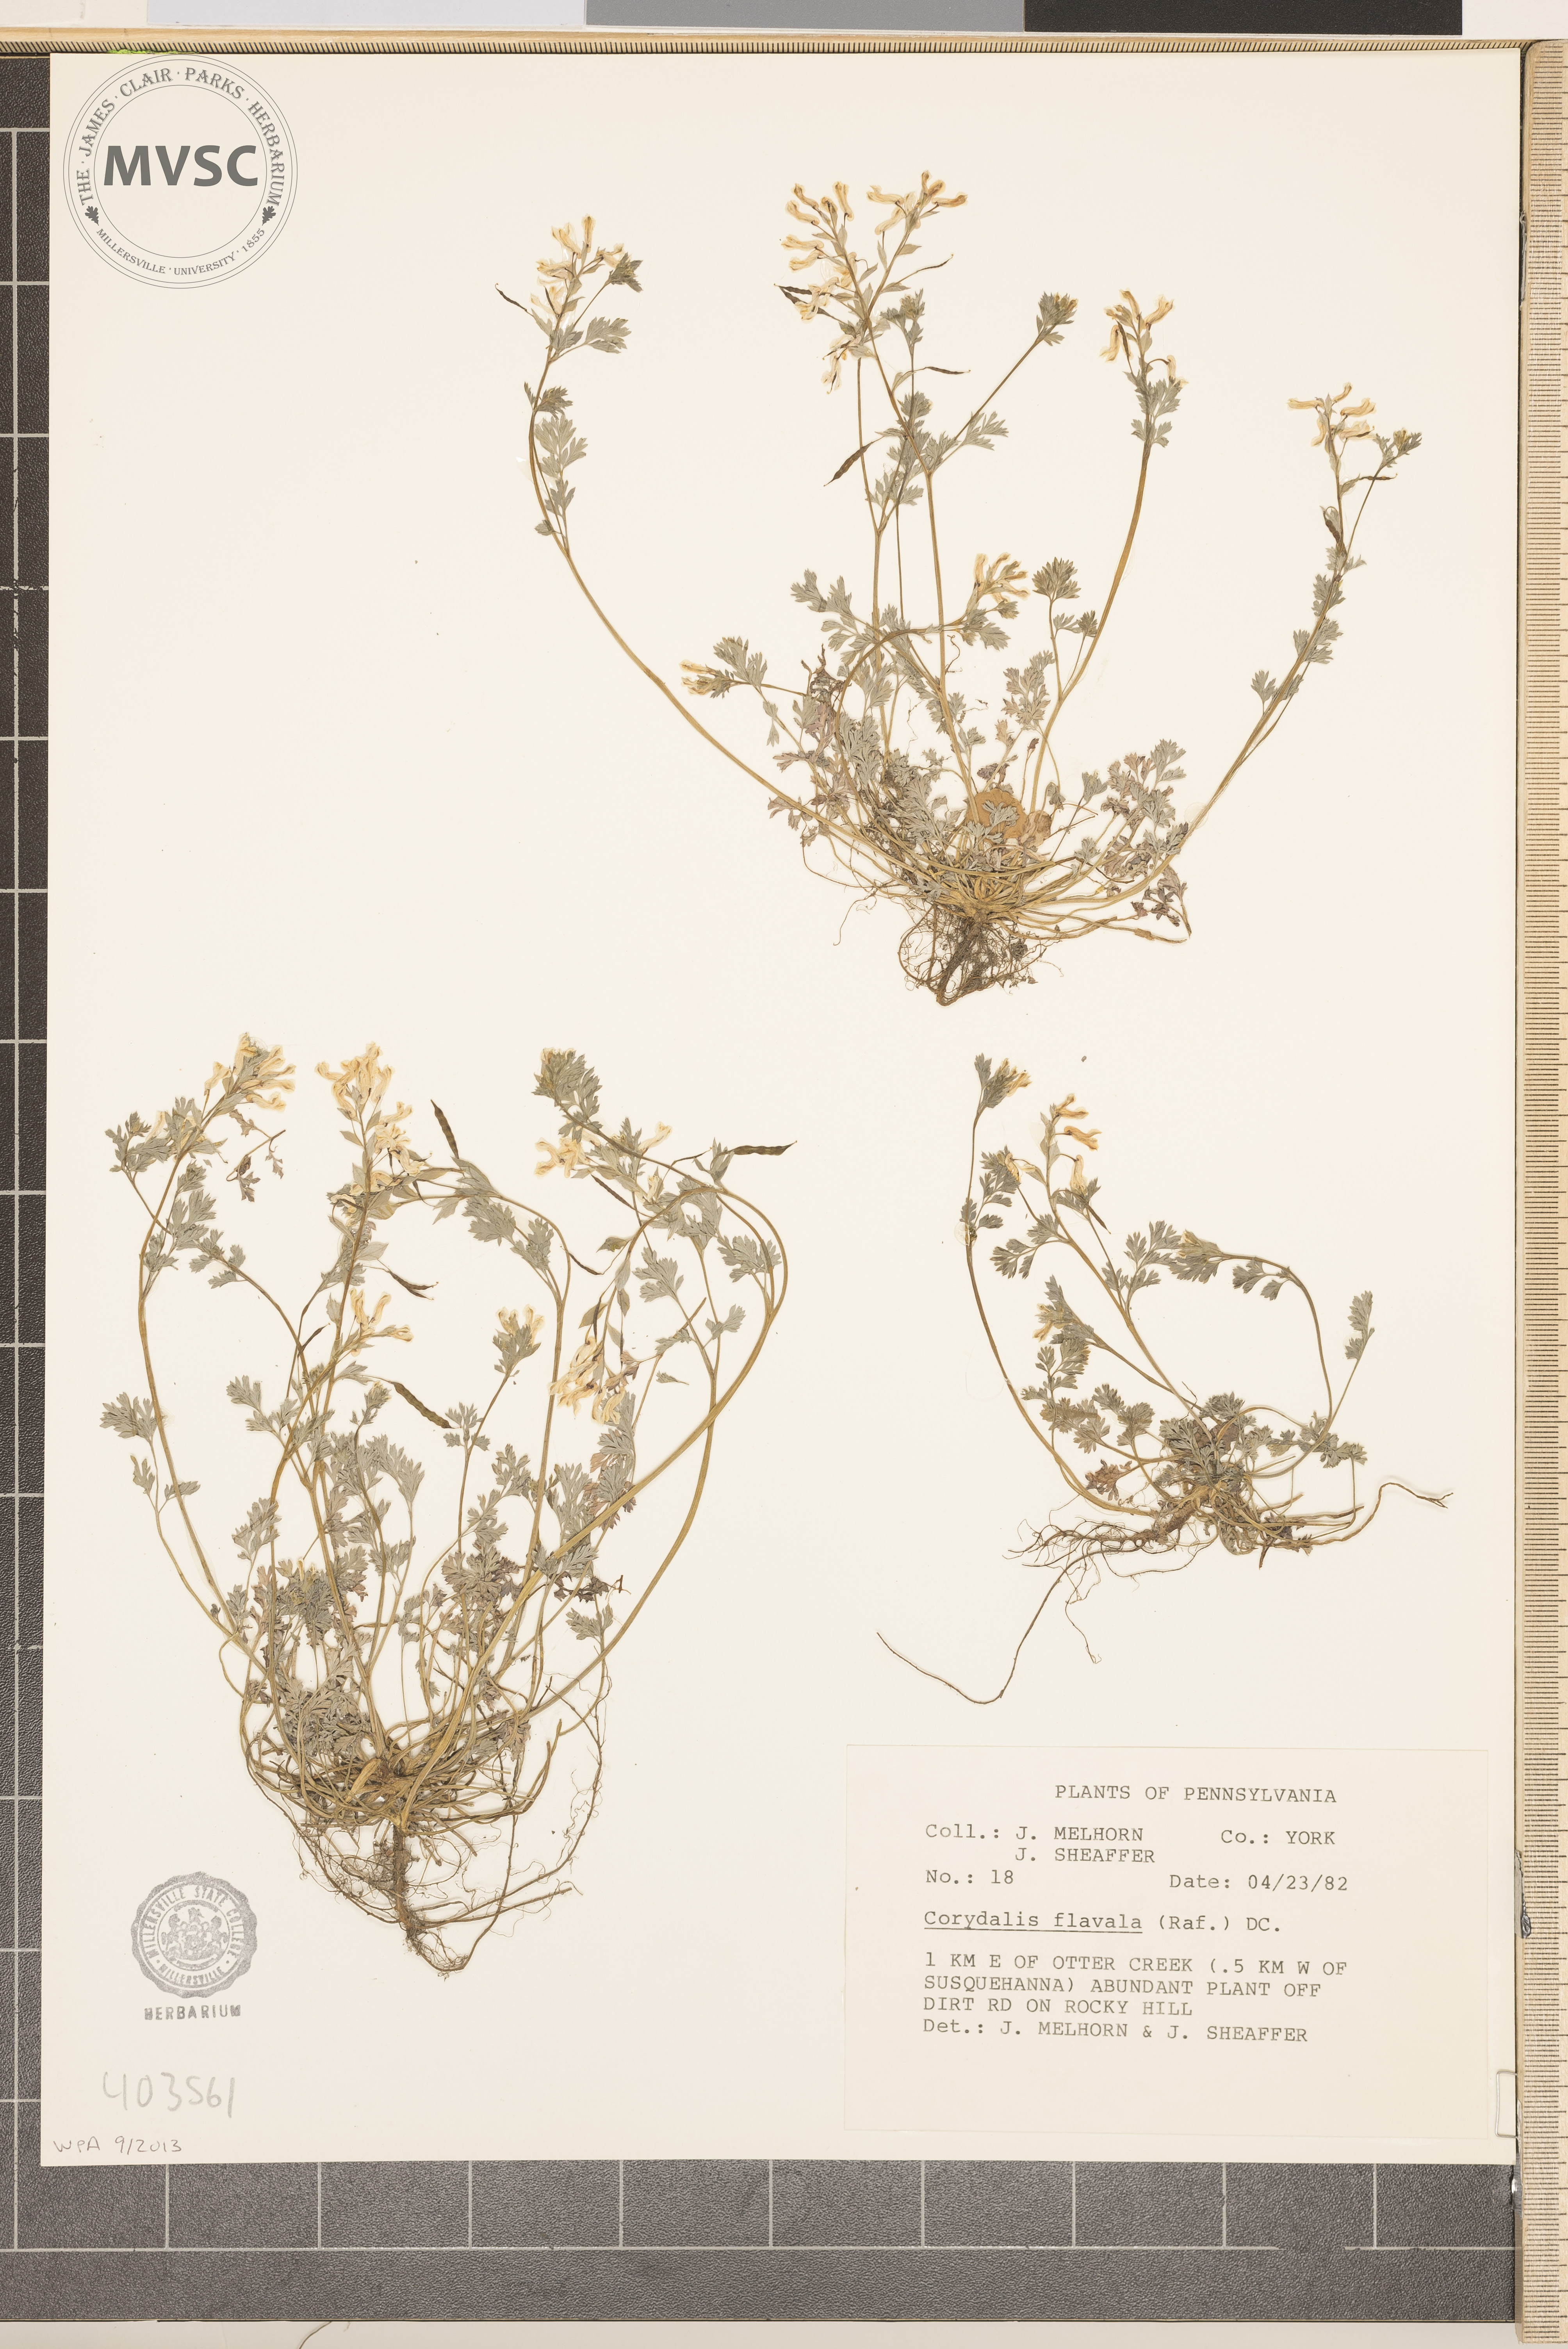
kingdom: Plantae
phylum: Tracheophyta
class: Magnoliopsida
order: Ranunculales
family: Papaveraceae
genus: Corydalis
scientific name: Corydalis flavula
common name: Yellow corydalis
